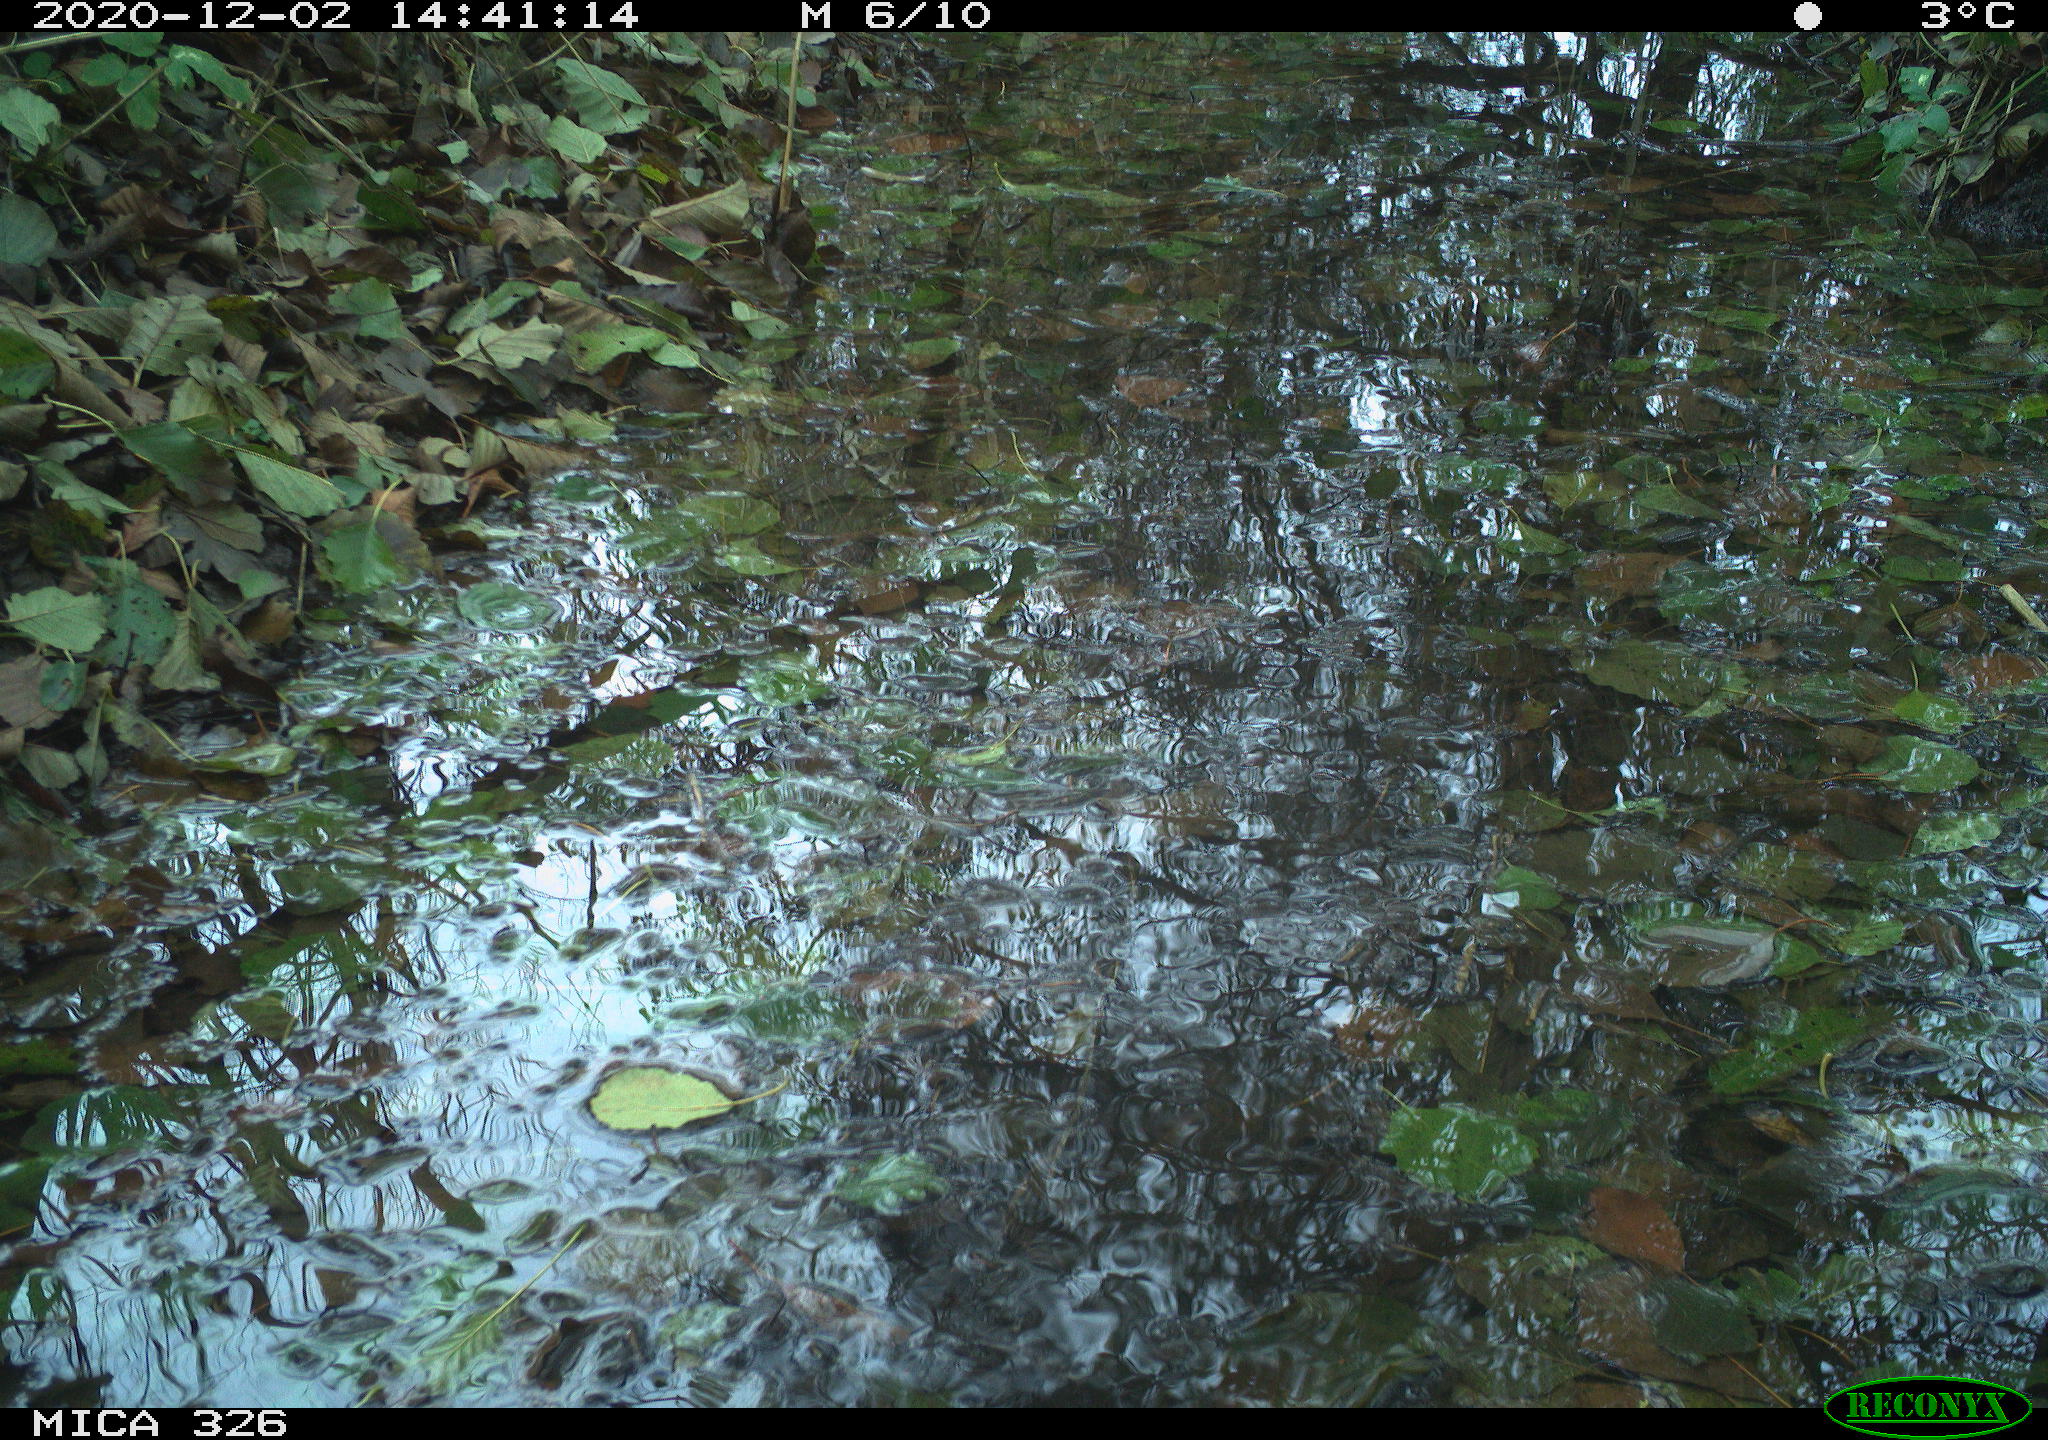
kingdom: Animalia
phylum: Chordata
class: Aves
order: Gruiformes
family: Rallidae
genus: Gallinula
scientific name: Gallinula chloropus
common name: Common moorhen
